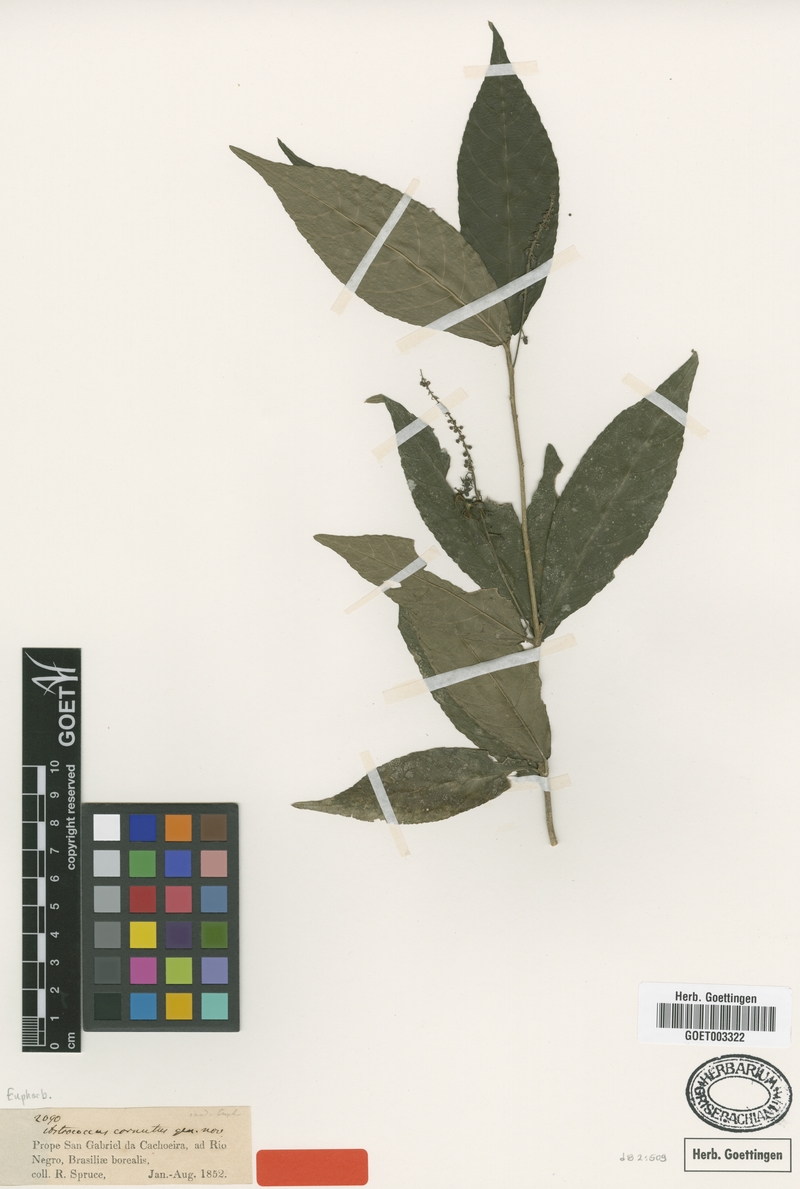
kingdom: Plantae
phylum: Tracheophyta
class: Magnoliopsida
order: Malpighiales
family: Euphorbiaceae
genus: Astrococcus
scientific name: Astrococcus cornutus
